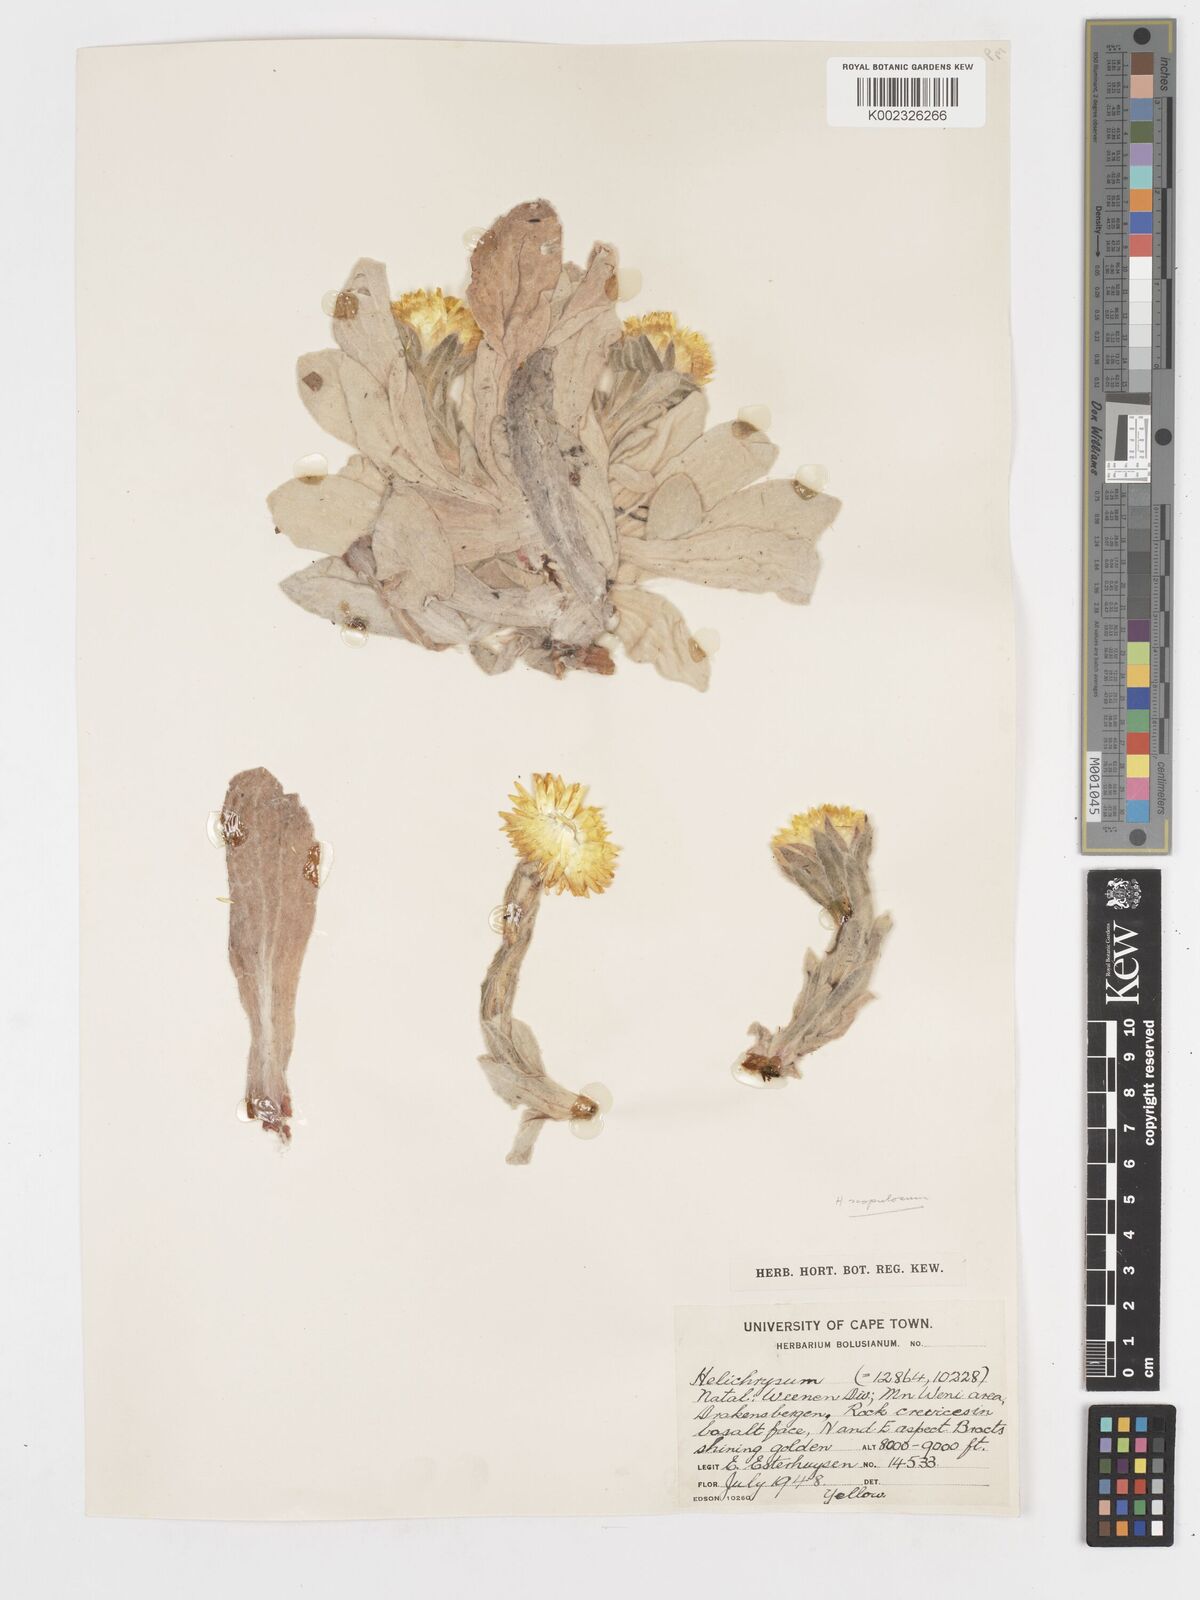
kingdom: Plantae
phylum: Tracheophyta
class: Magnoliopsida
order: Asterales
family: Asteraceae
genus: Helichrysum
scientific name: Helichrysum aureum
